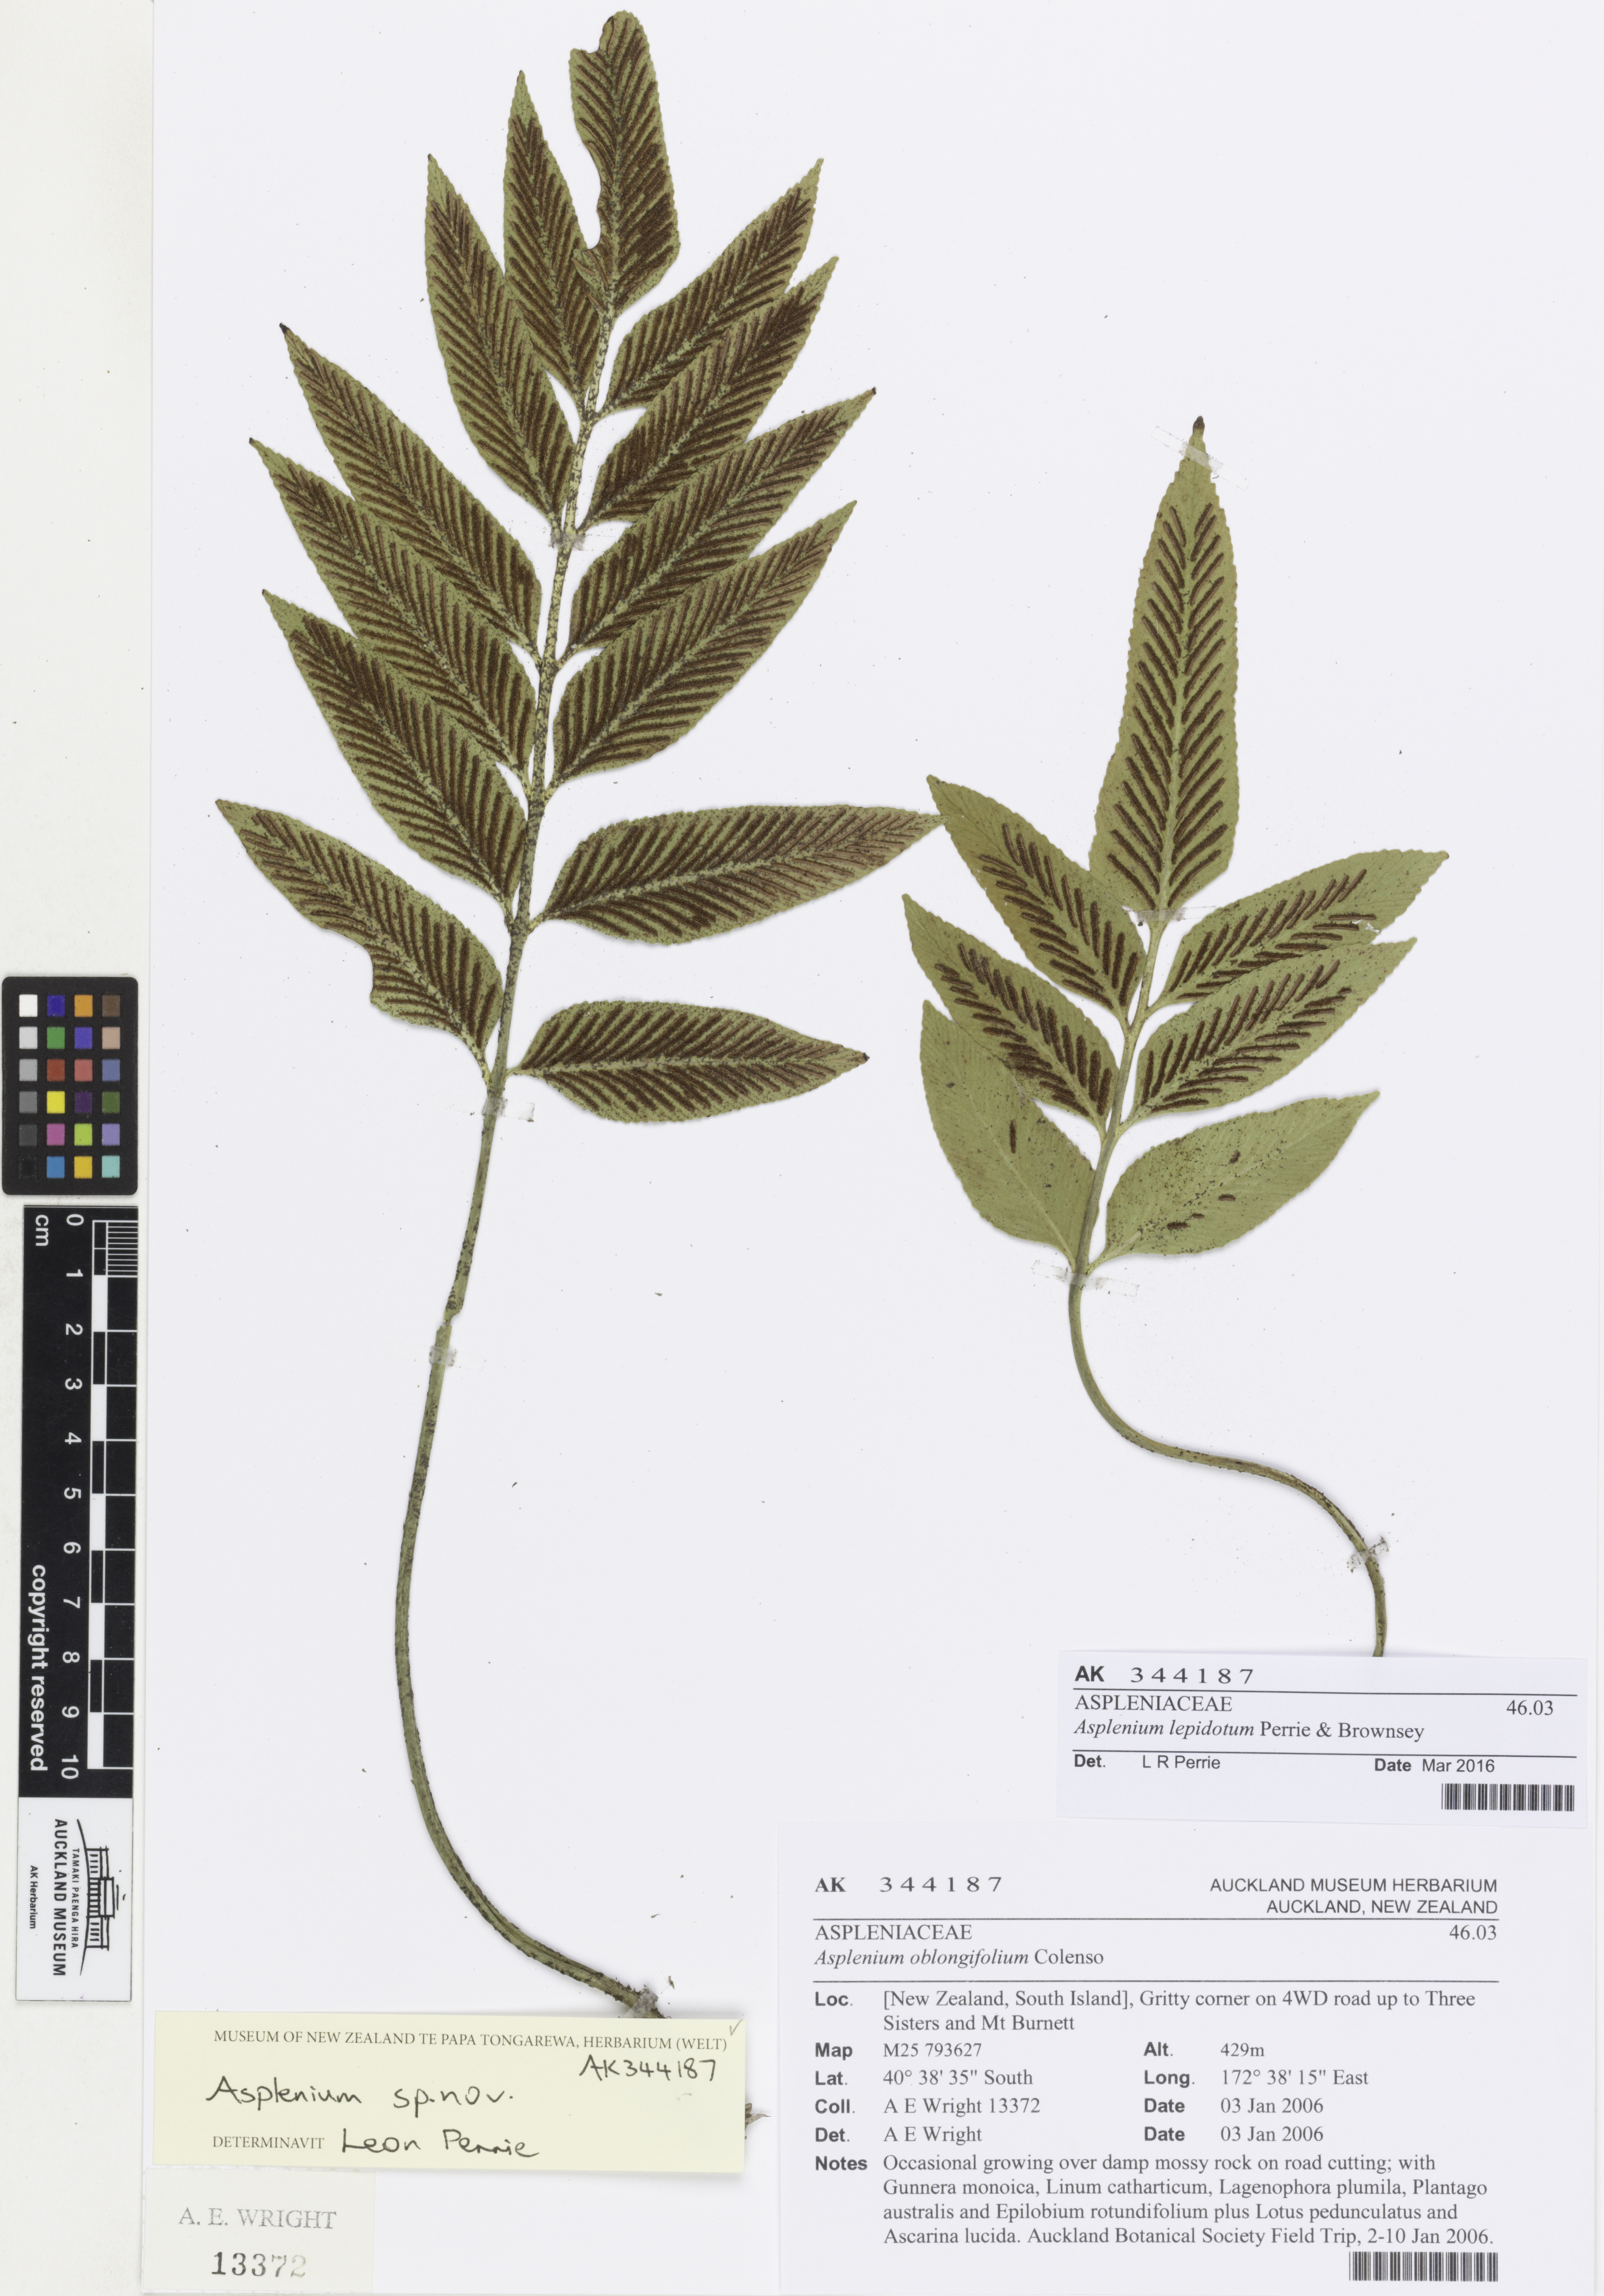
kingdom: Plantae
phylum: Tracheophyta
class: Polypodiopsida
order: Polypodiales
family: Aspleniaceae
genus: Asplenium
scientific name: Asplenium lepidotum
